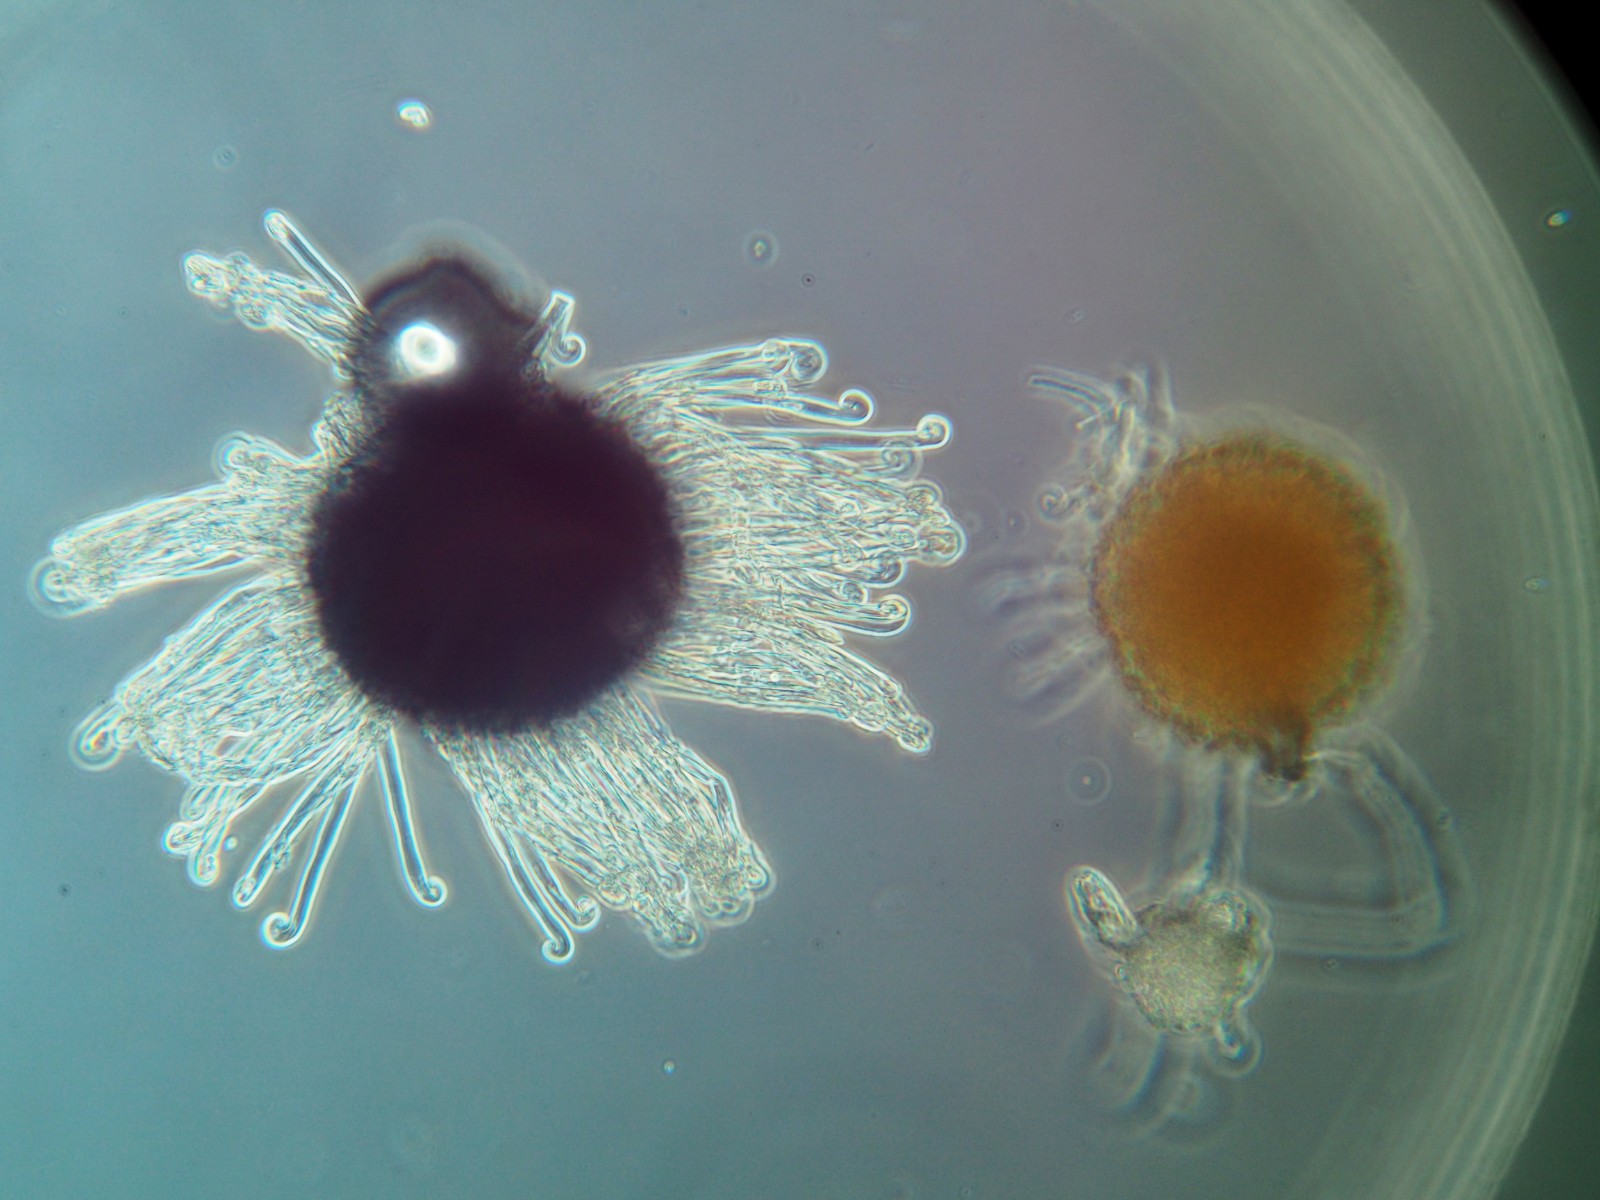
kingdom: Fungi
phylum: Ascomycota
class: Leotiomycetes
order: Helotiales
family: Erysiphaceae
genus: Erysiphe
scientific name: Erysiphe adunca
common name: pile-meldug
